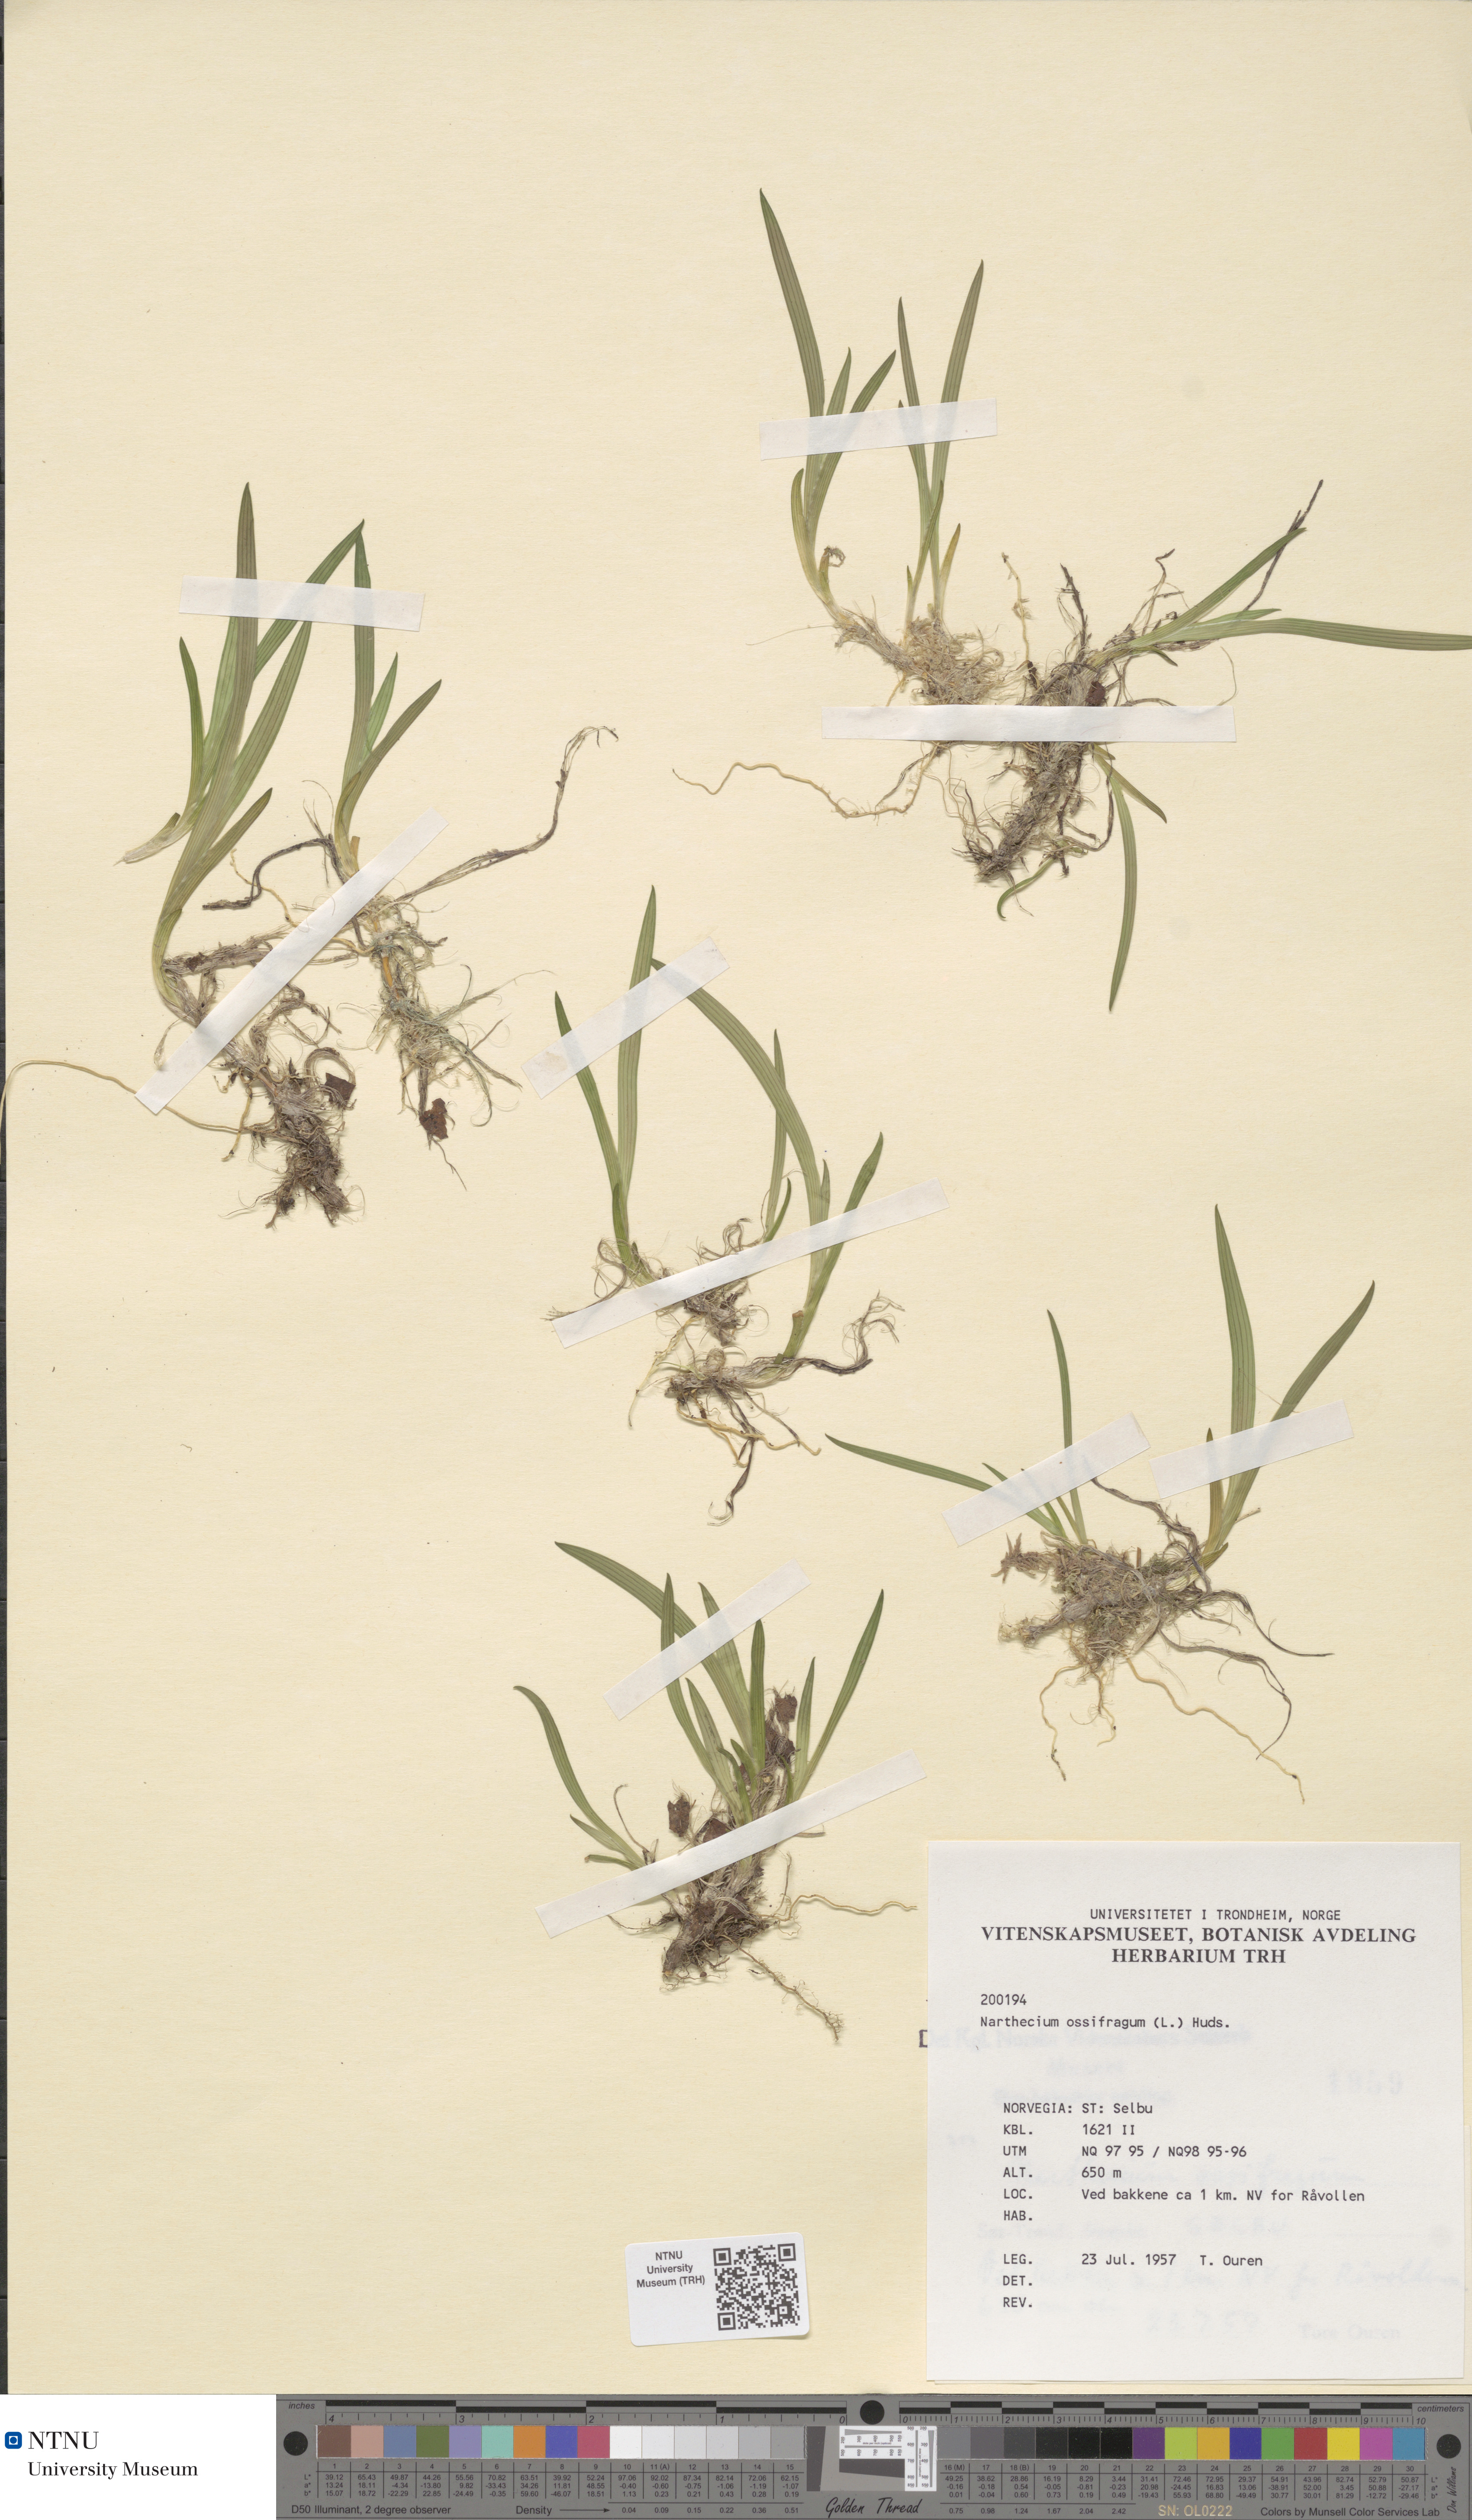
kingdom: Plantae
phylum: Tracheophyta
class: Liliopsida
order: Dioscoreales
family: Nartheciaceae
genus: Narthecium
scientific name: Narthecium ossifragum
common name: Bog asphodel
